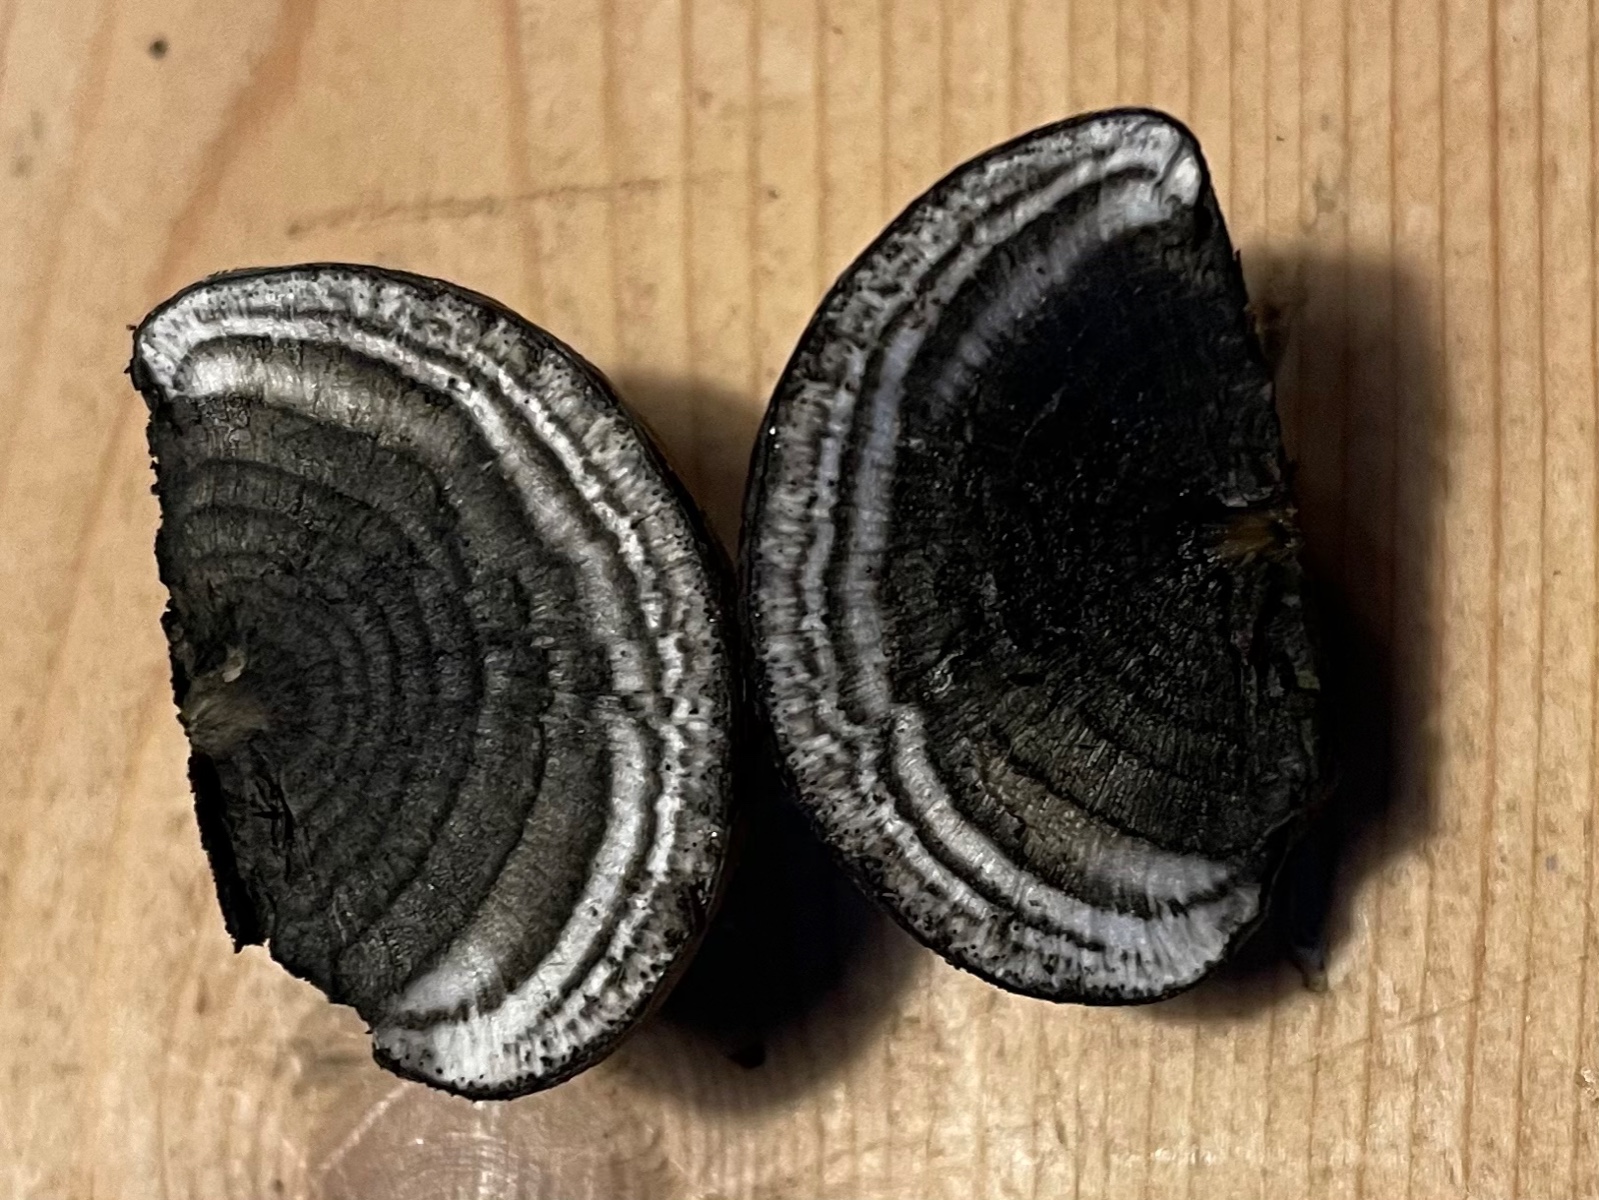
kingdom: Fungi
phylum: Ascomycota
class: Sordariomycetes
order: Xylariales
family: Hypoxylaceae
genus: Daldinia
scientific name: Daldinia concentrica
